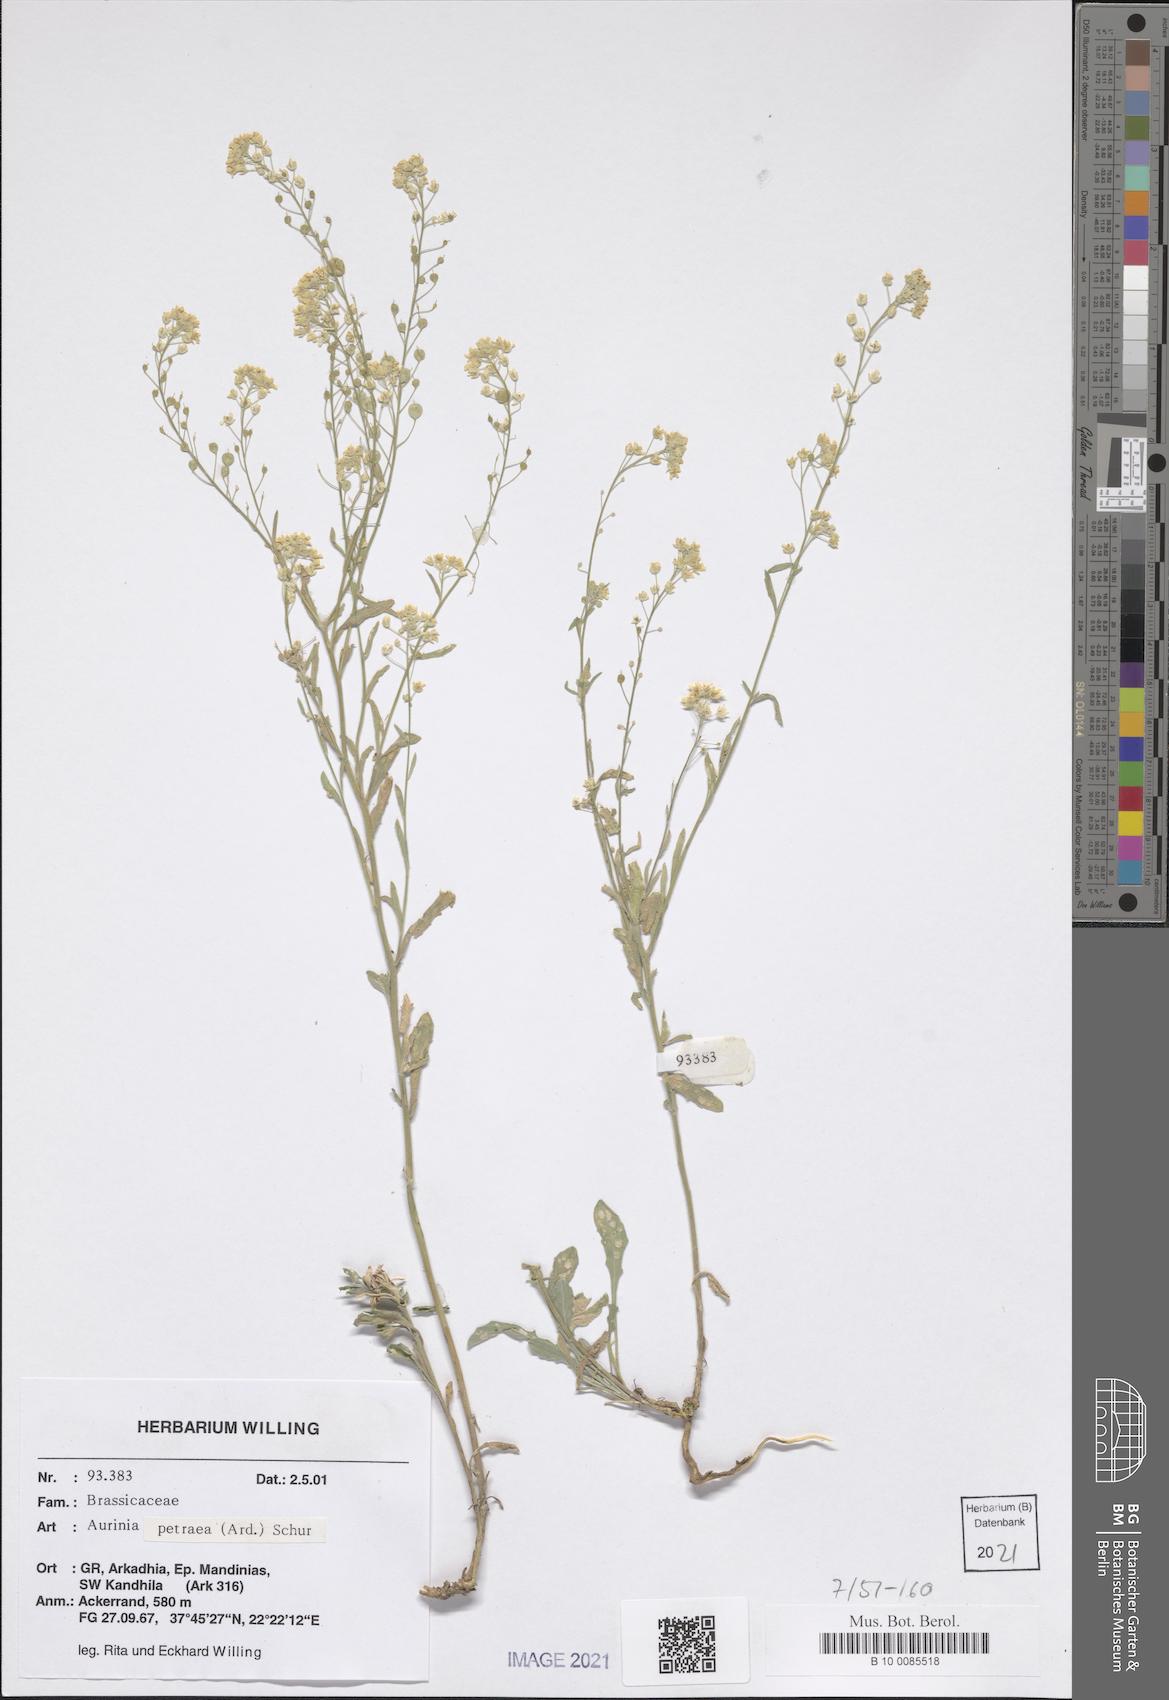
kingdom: Plantae
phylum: Tracheophyta
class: Magnoliopsida
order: Brassicales
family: Brassicaceae
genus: Aurinia
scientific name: Aurinia petraea
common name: Goldentuft
